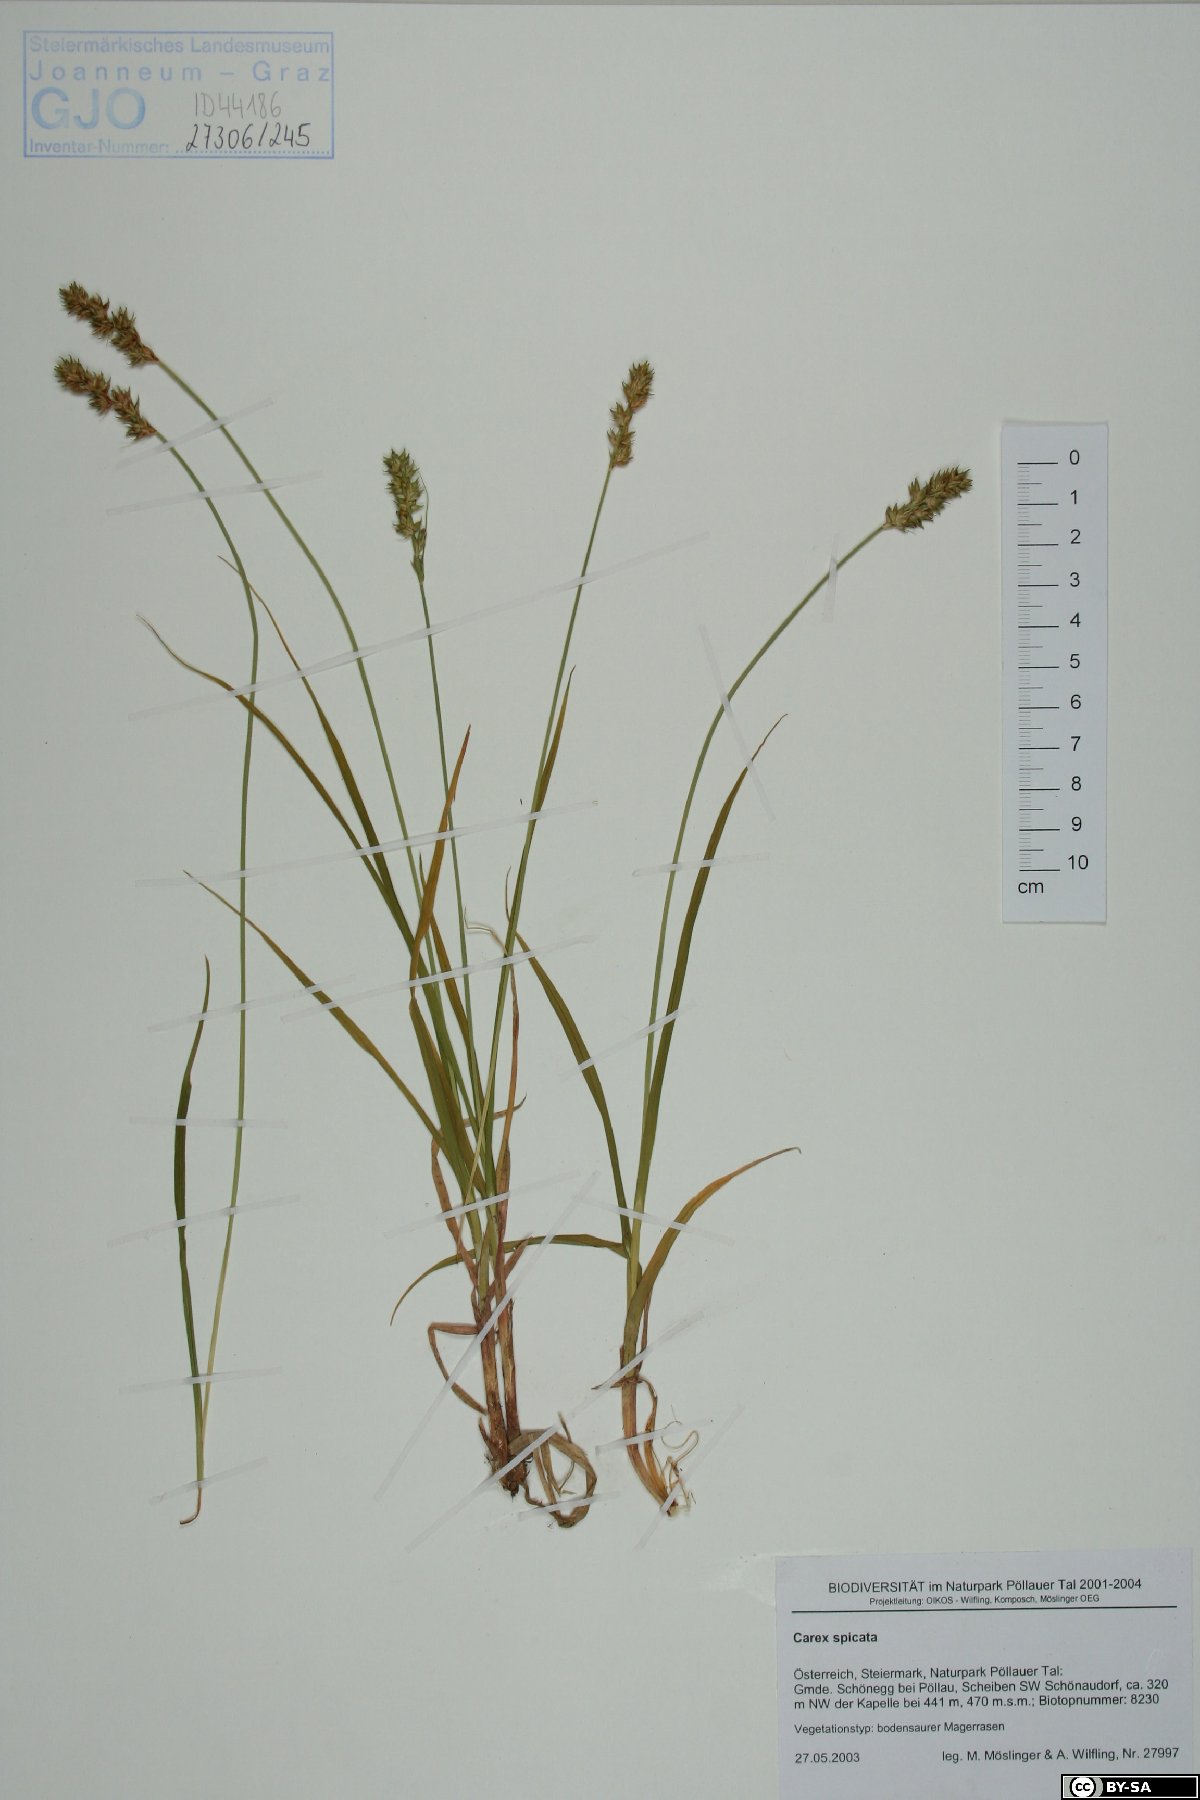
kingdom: Plantae
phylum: Tracheophyta
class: Liliopsida
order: Poales
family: Cyperaceae
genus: Carex
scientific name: Carex spicata
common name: Spiked sedge
